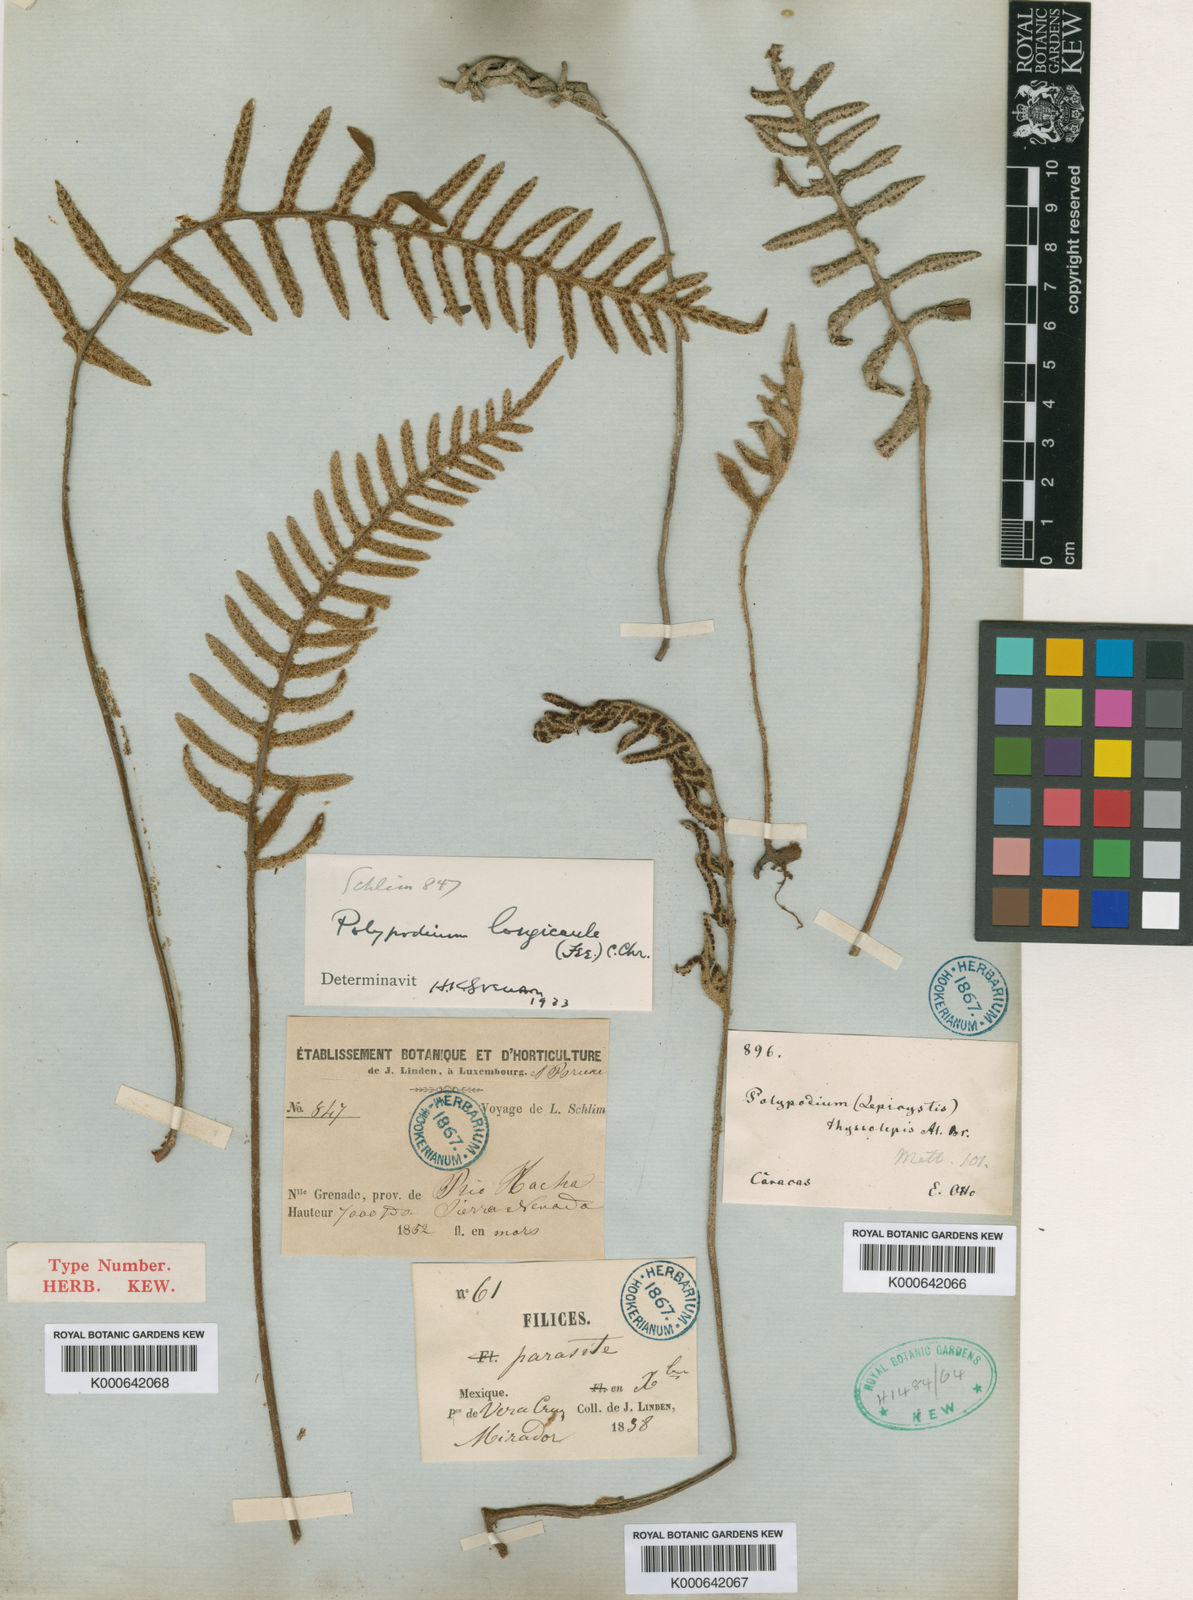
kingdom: Plantae
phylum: Tracheophyta
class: Polypodiopsida
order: Polypodiales
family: Polypodiaceae
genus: Polypodium
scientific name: Polypodium
